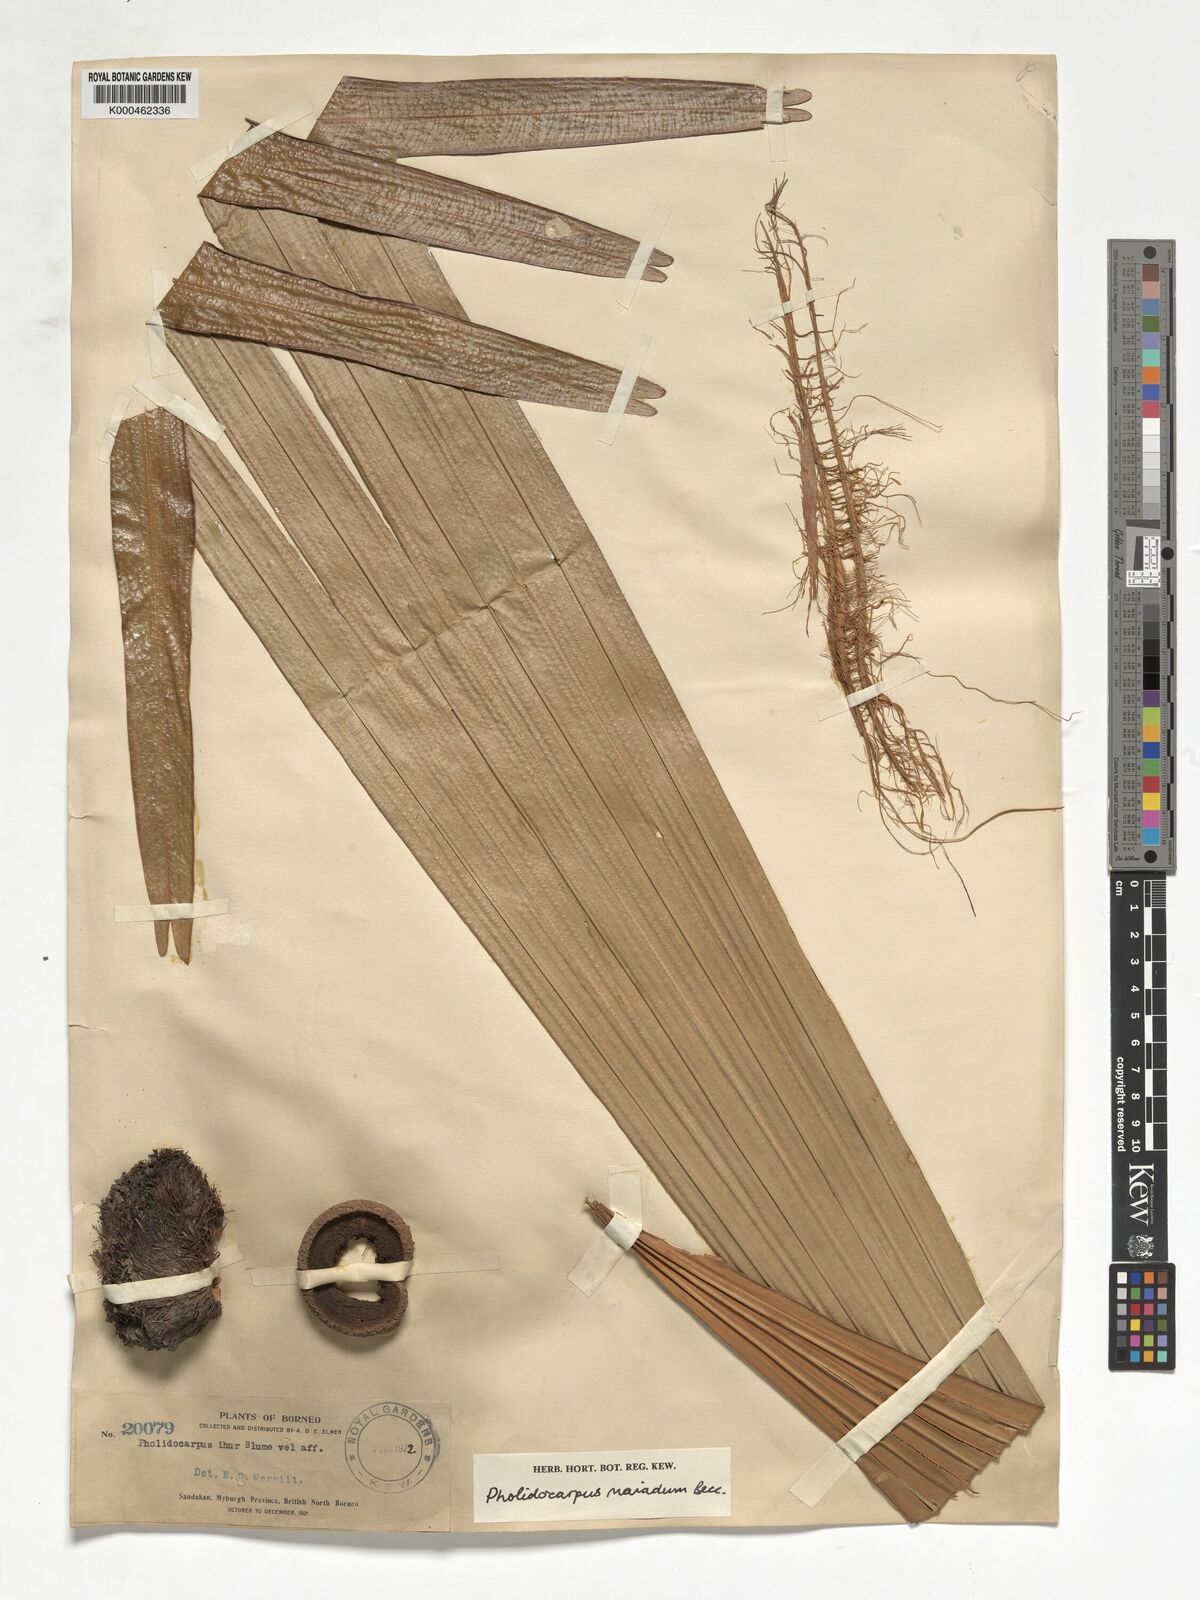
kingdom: Plantae
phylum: Tracheophyta
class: Liliopsida
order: Arecales
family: Arecaceae
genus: Pholidocarpus
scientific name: Pholidocarpus majadum
